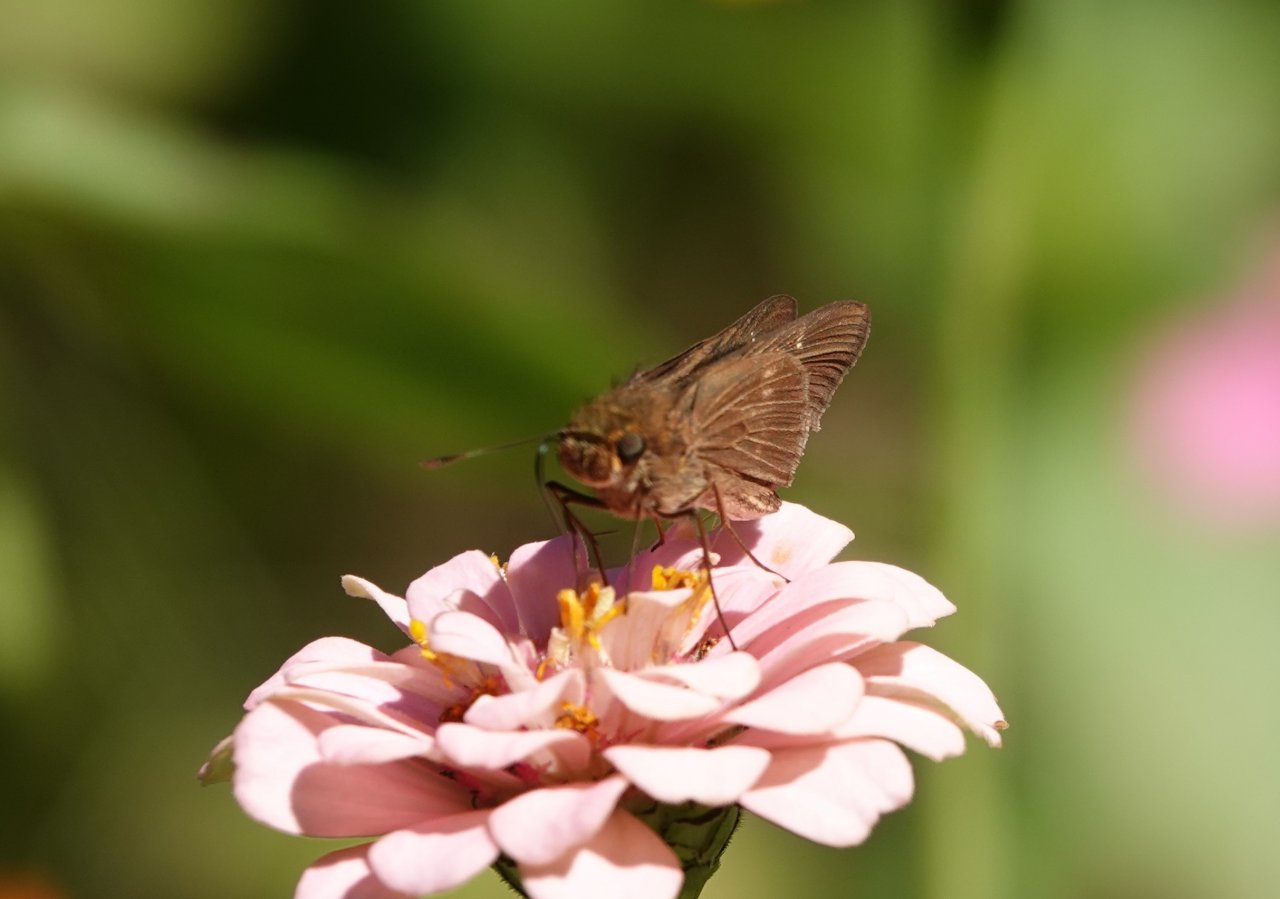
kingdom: Animalia
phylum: Arthropoda
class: Insecta
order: Lepidoptera
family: Hesperiidae
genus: Panoquina
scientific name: Panoquina ocola
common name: Ocola Skipper
